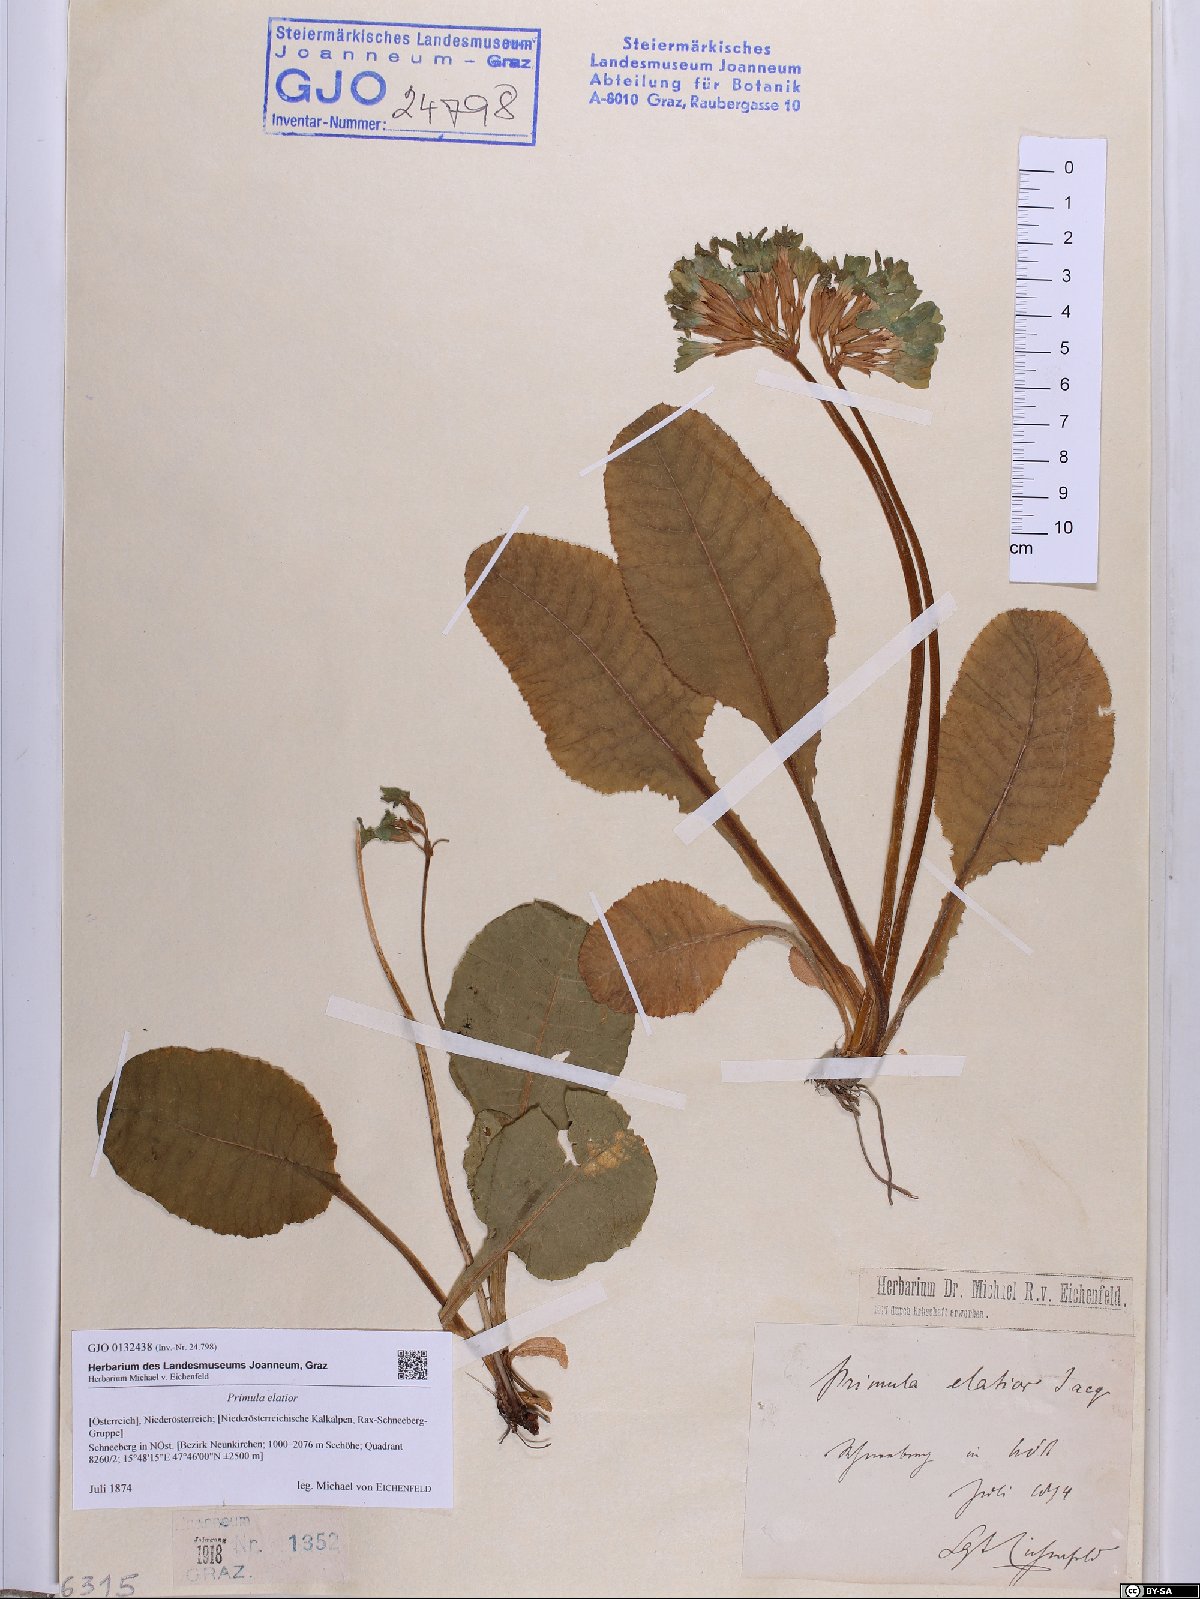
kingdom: Plantae
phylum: Tracheophyta
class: Magnoliopsida
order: Ericales
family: Primulaceae
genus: Primula
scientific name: Primula elatior
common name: Oxlip
